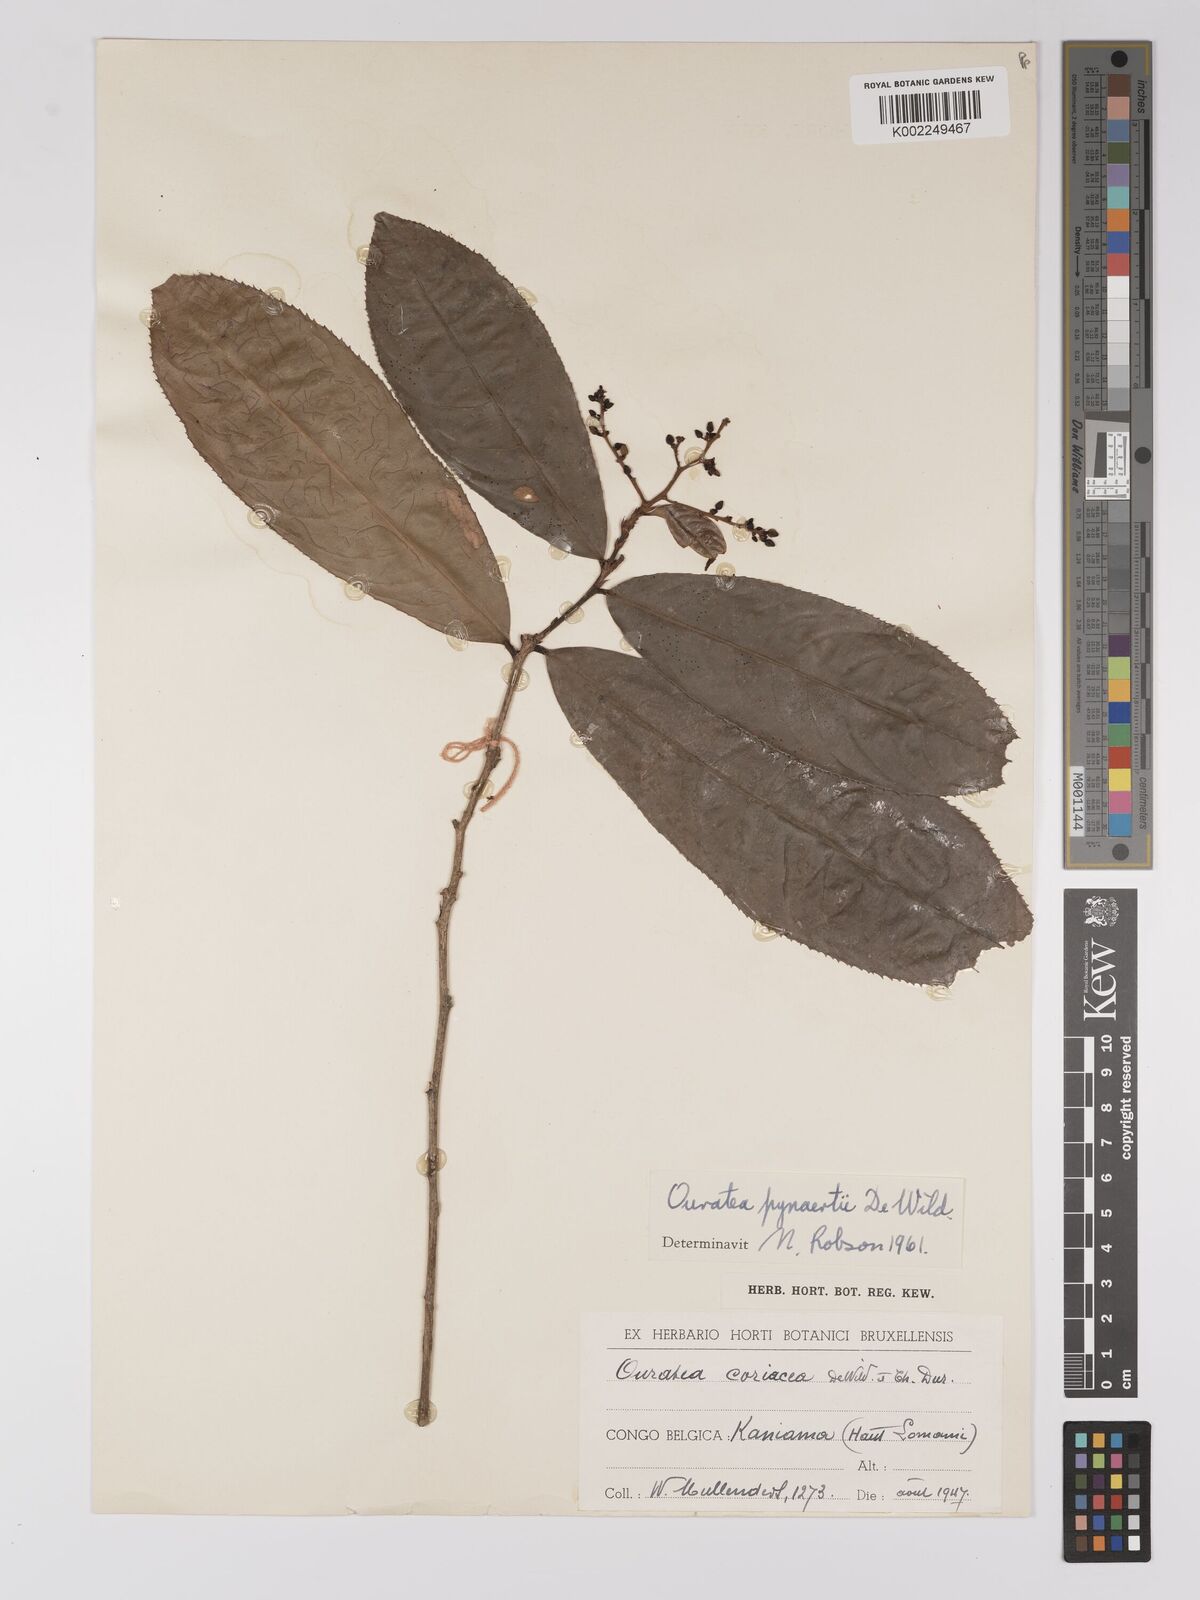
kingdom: Plantae
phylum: Tracheophyta
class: Magnoliopsida
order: Malpighiales
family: Ochnaceae
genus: Campylospermum
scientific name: Campylospermum flavum
